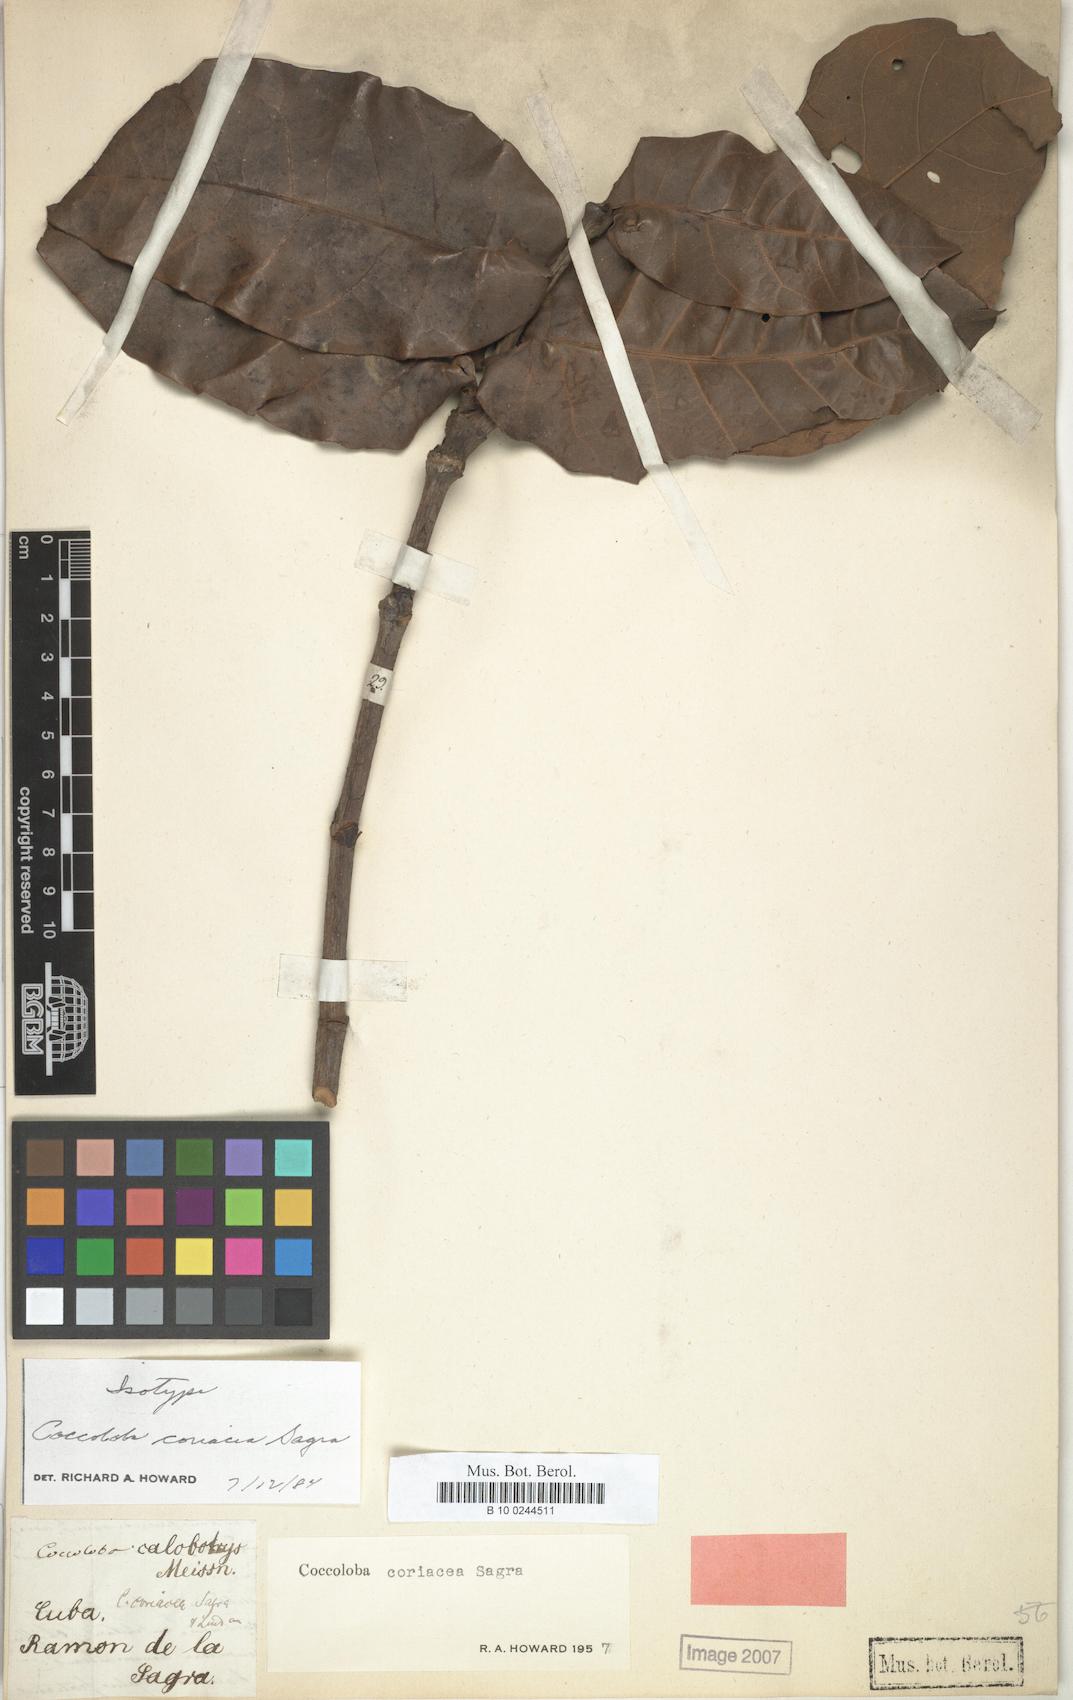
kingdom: Plantae
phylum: Tracheophyta
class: Magnoliopsida
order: Caryophyllales
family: Polygonaceae
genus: Coccoloba
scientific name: Coccoloba coriacea
